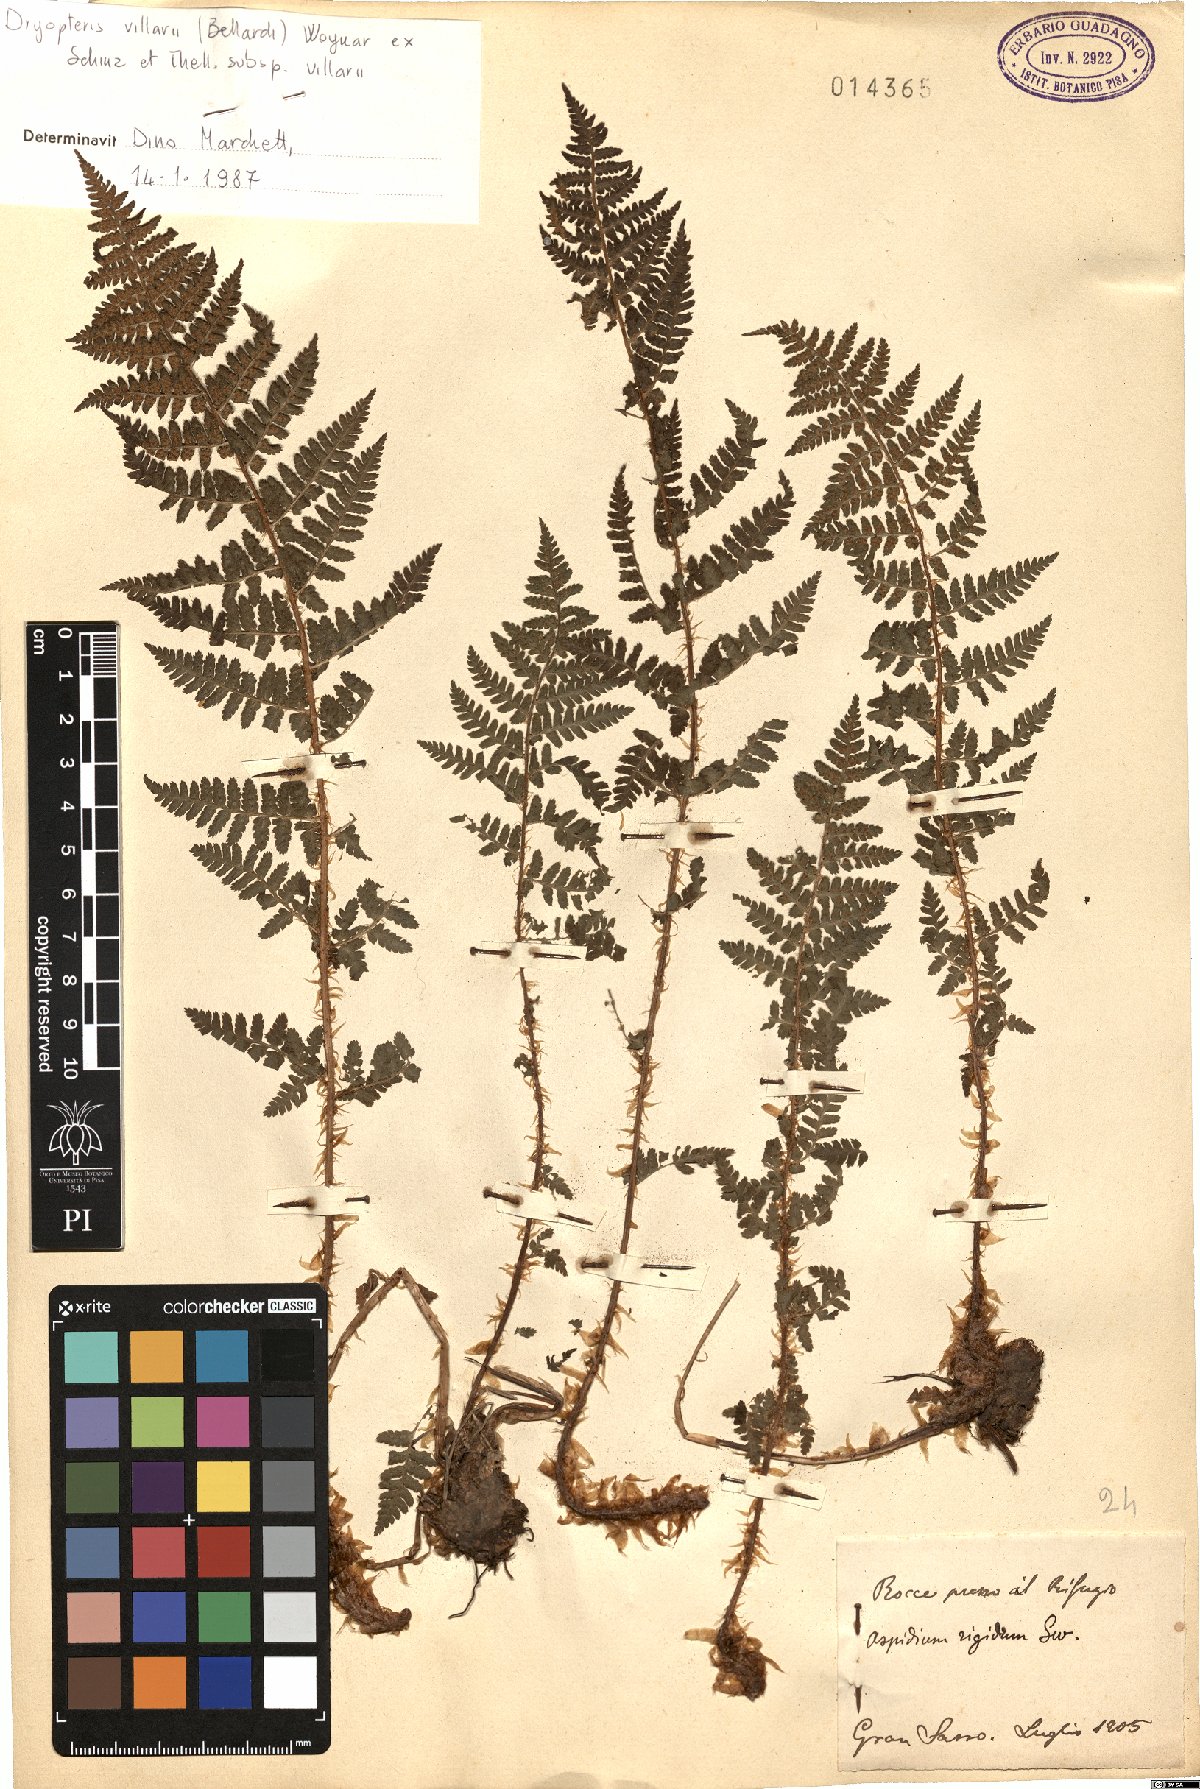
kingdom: Plantae
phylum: Tracheophyta
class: Polypodiopsida
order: Polypodiales
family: Dryopteridaceae
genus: Dryopteris
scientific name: Dryopteris villarii
